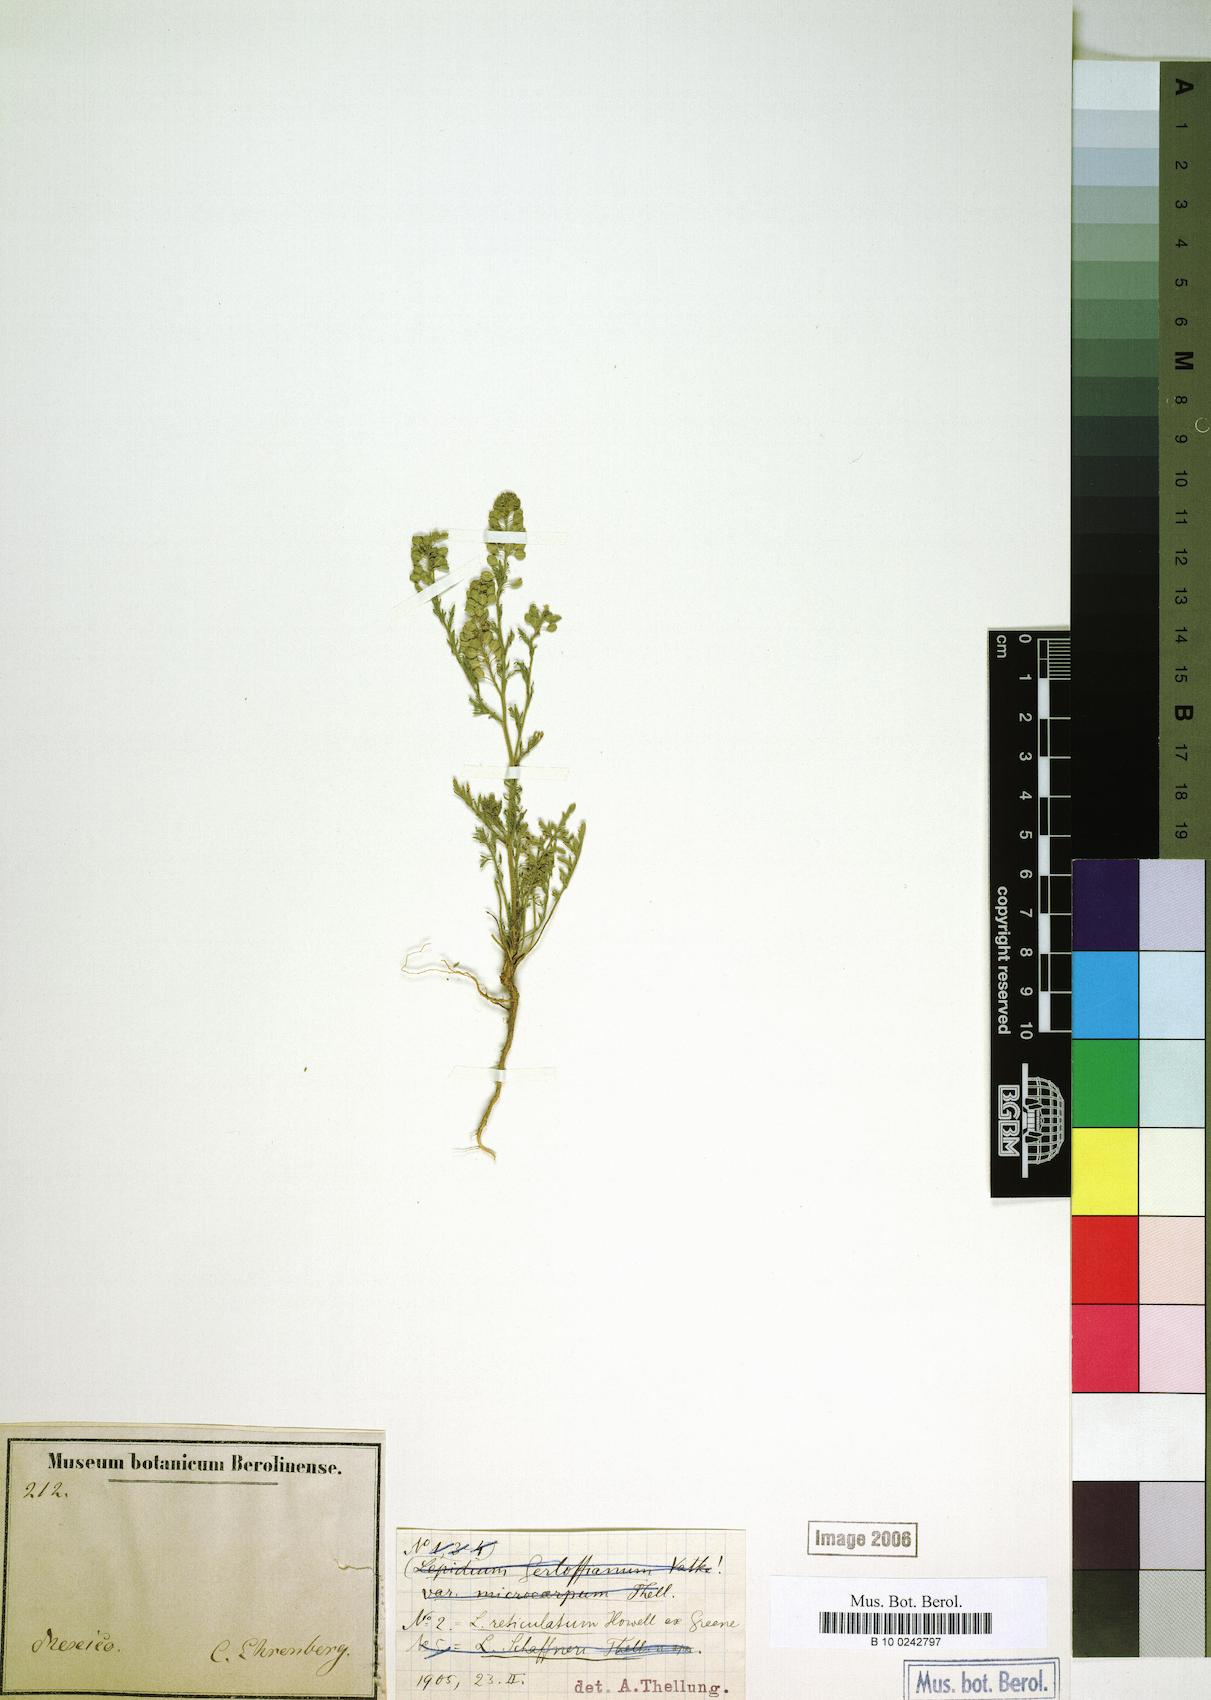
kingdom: Plantae
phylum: Tracheophyta
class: Magnoliopsida
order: Brassicales
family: Brassicaceae
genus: Lepidium
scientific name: Lepidium strictum
